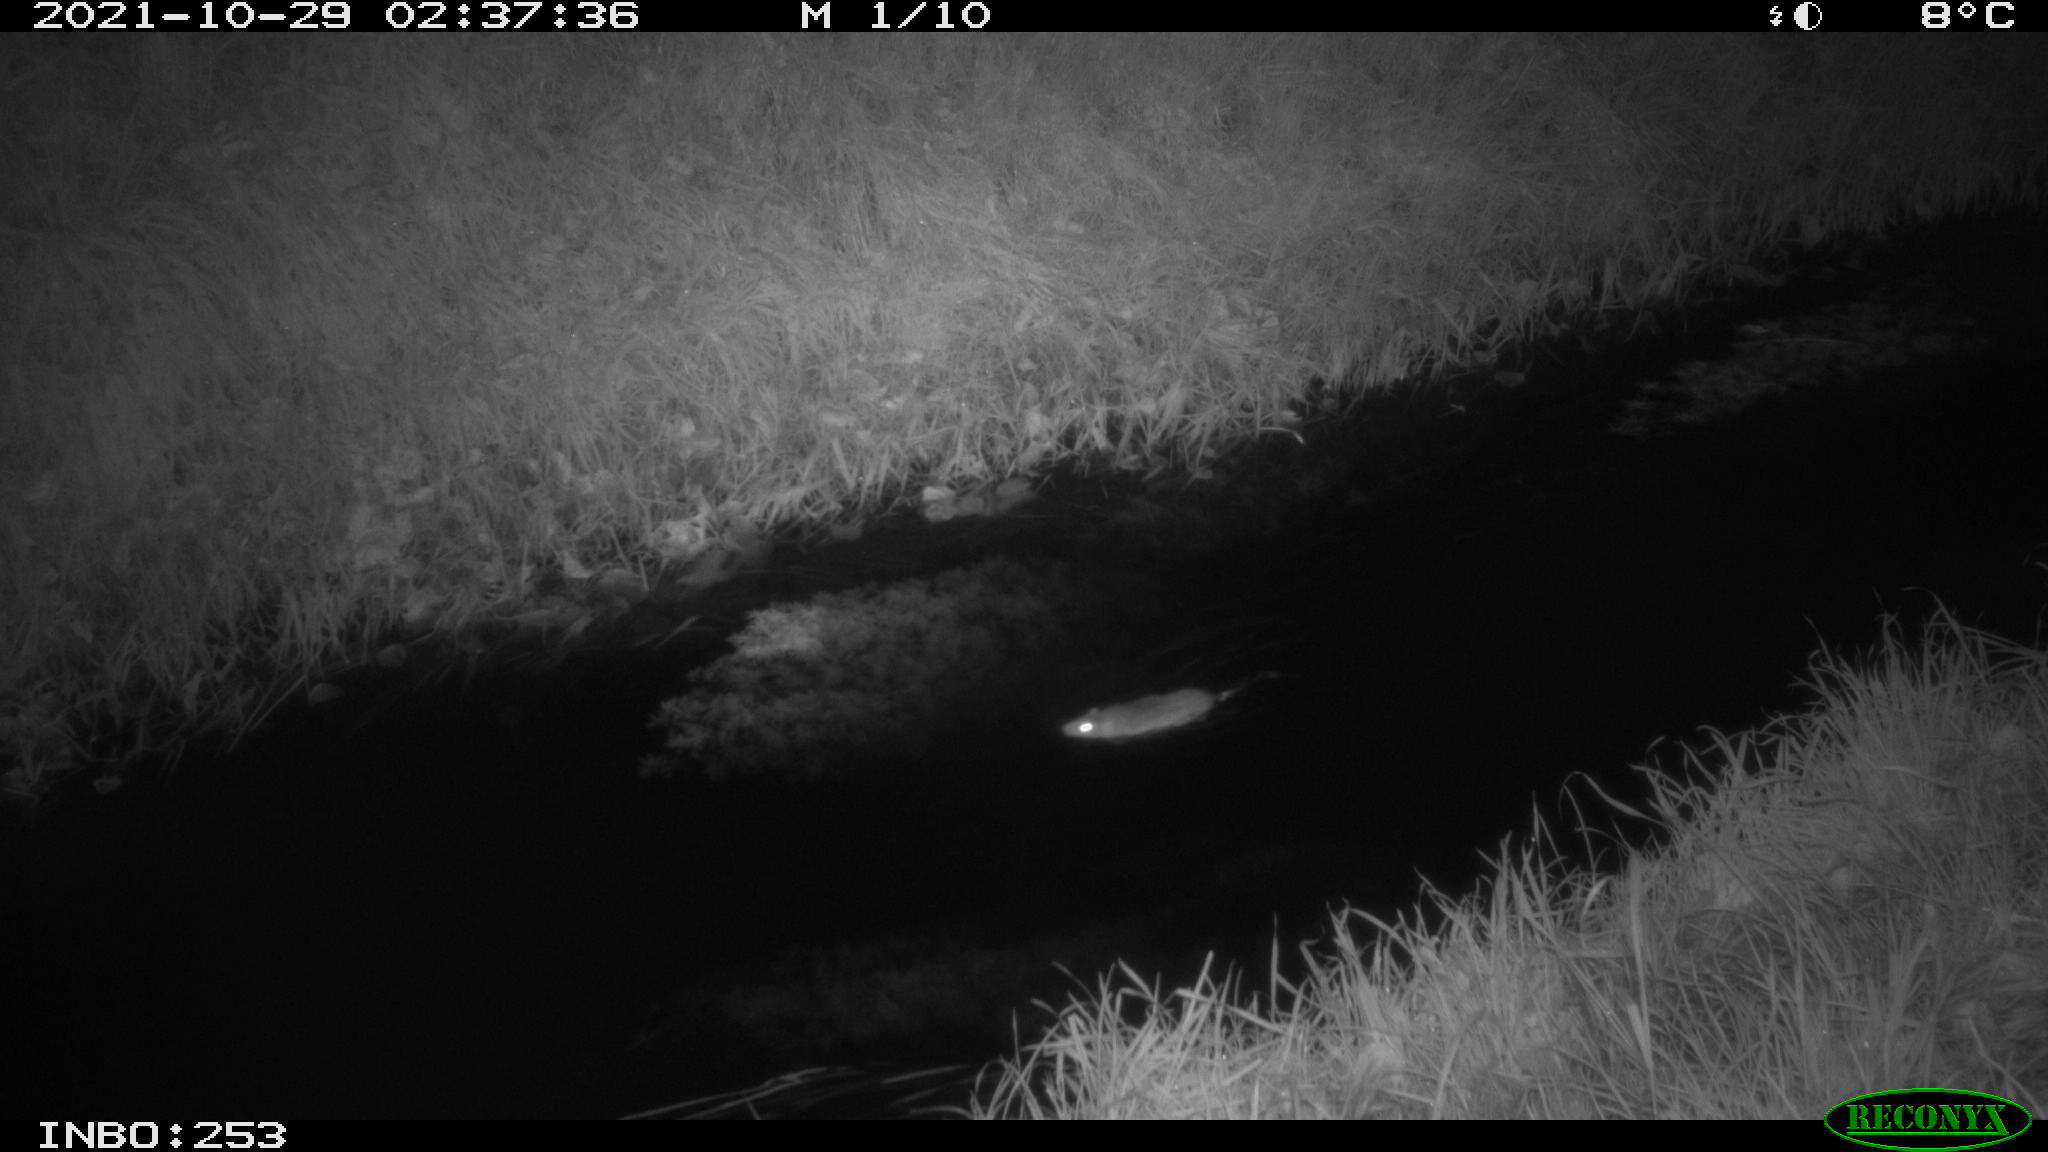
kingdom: Animalia
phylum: Chordata
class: Mammalia
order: Rodentia
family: Muridae
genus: Rattus
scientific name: Rattus norvegicus
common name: Brown rat
